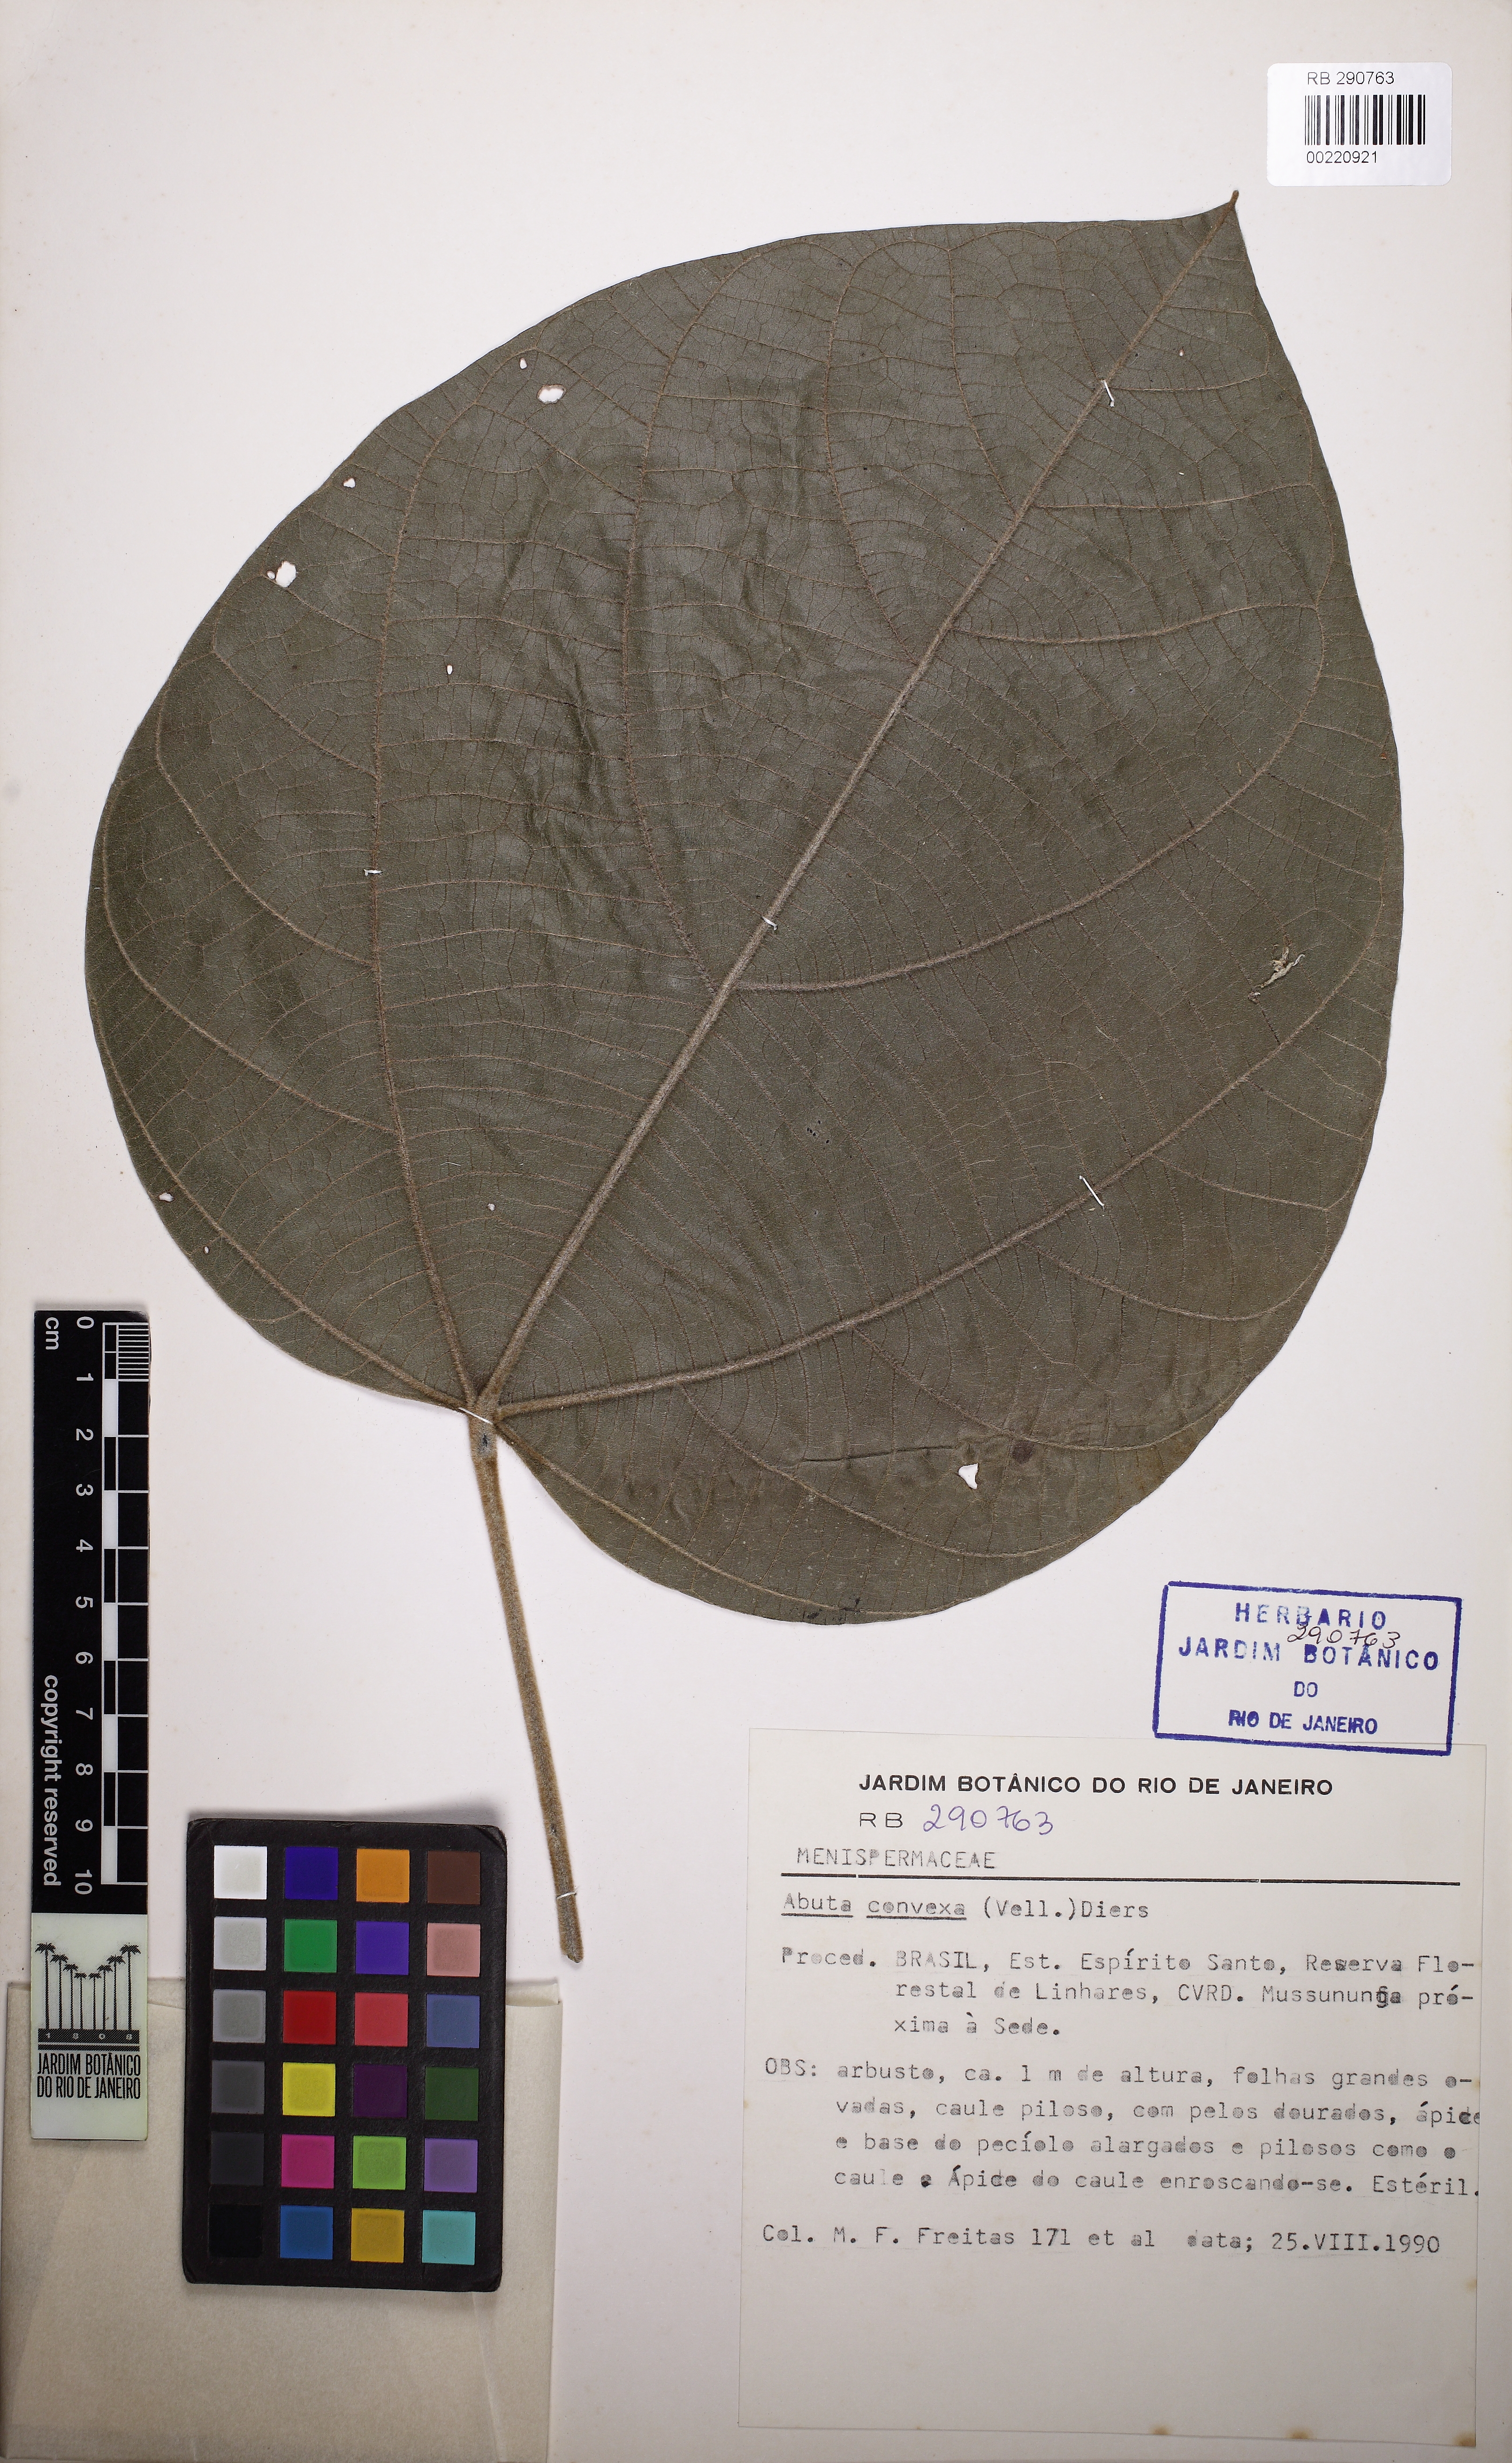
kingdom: Plantae
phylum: Tracheophyta
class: Magnoliopsida
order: Ranunculales
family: Menispermaceae
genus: Abuta
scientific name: Abuta rufescens
